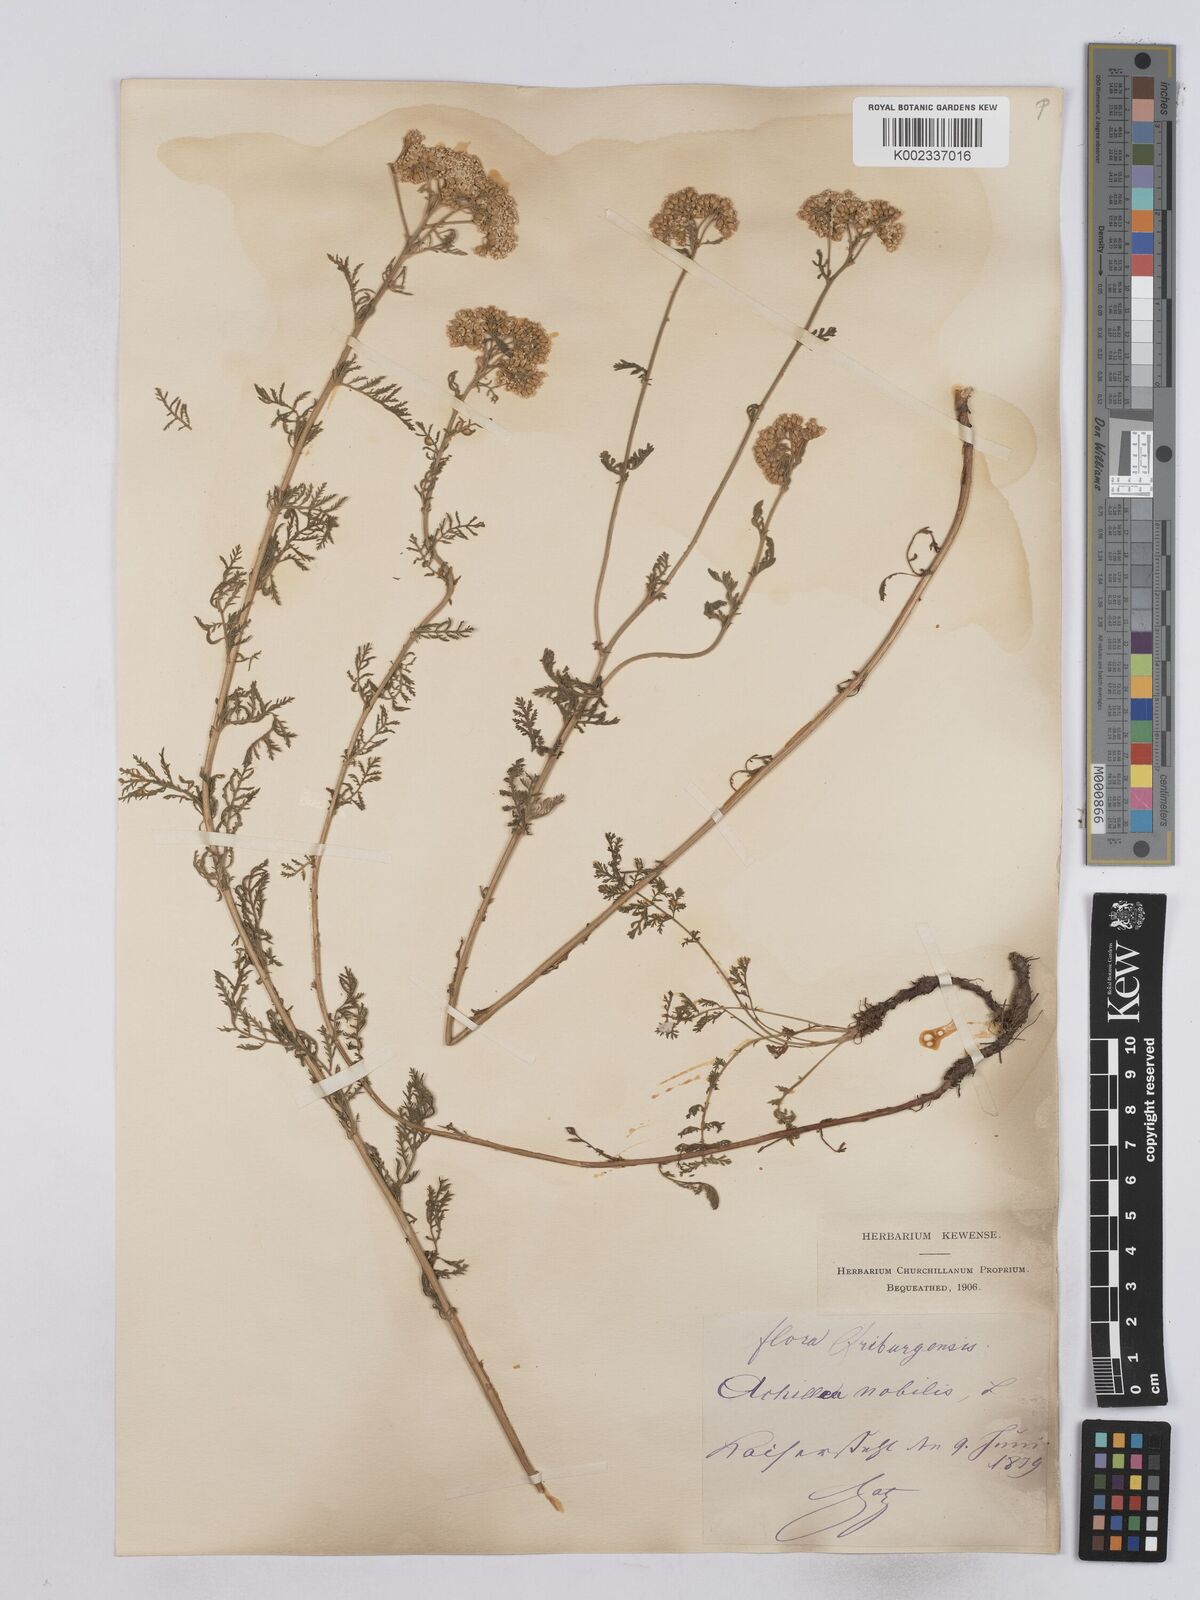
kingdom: Plantae
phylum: Tracheophyta
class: Magnoliopsida
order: Asterales
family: Asteraceae
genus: Achillea
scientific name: Achillea nobilis
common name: Noble yarrow
